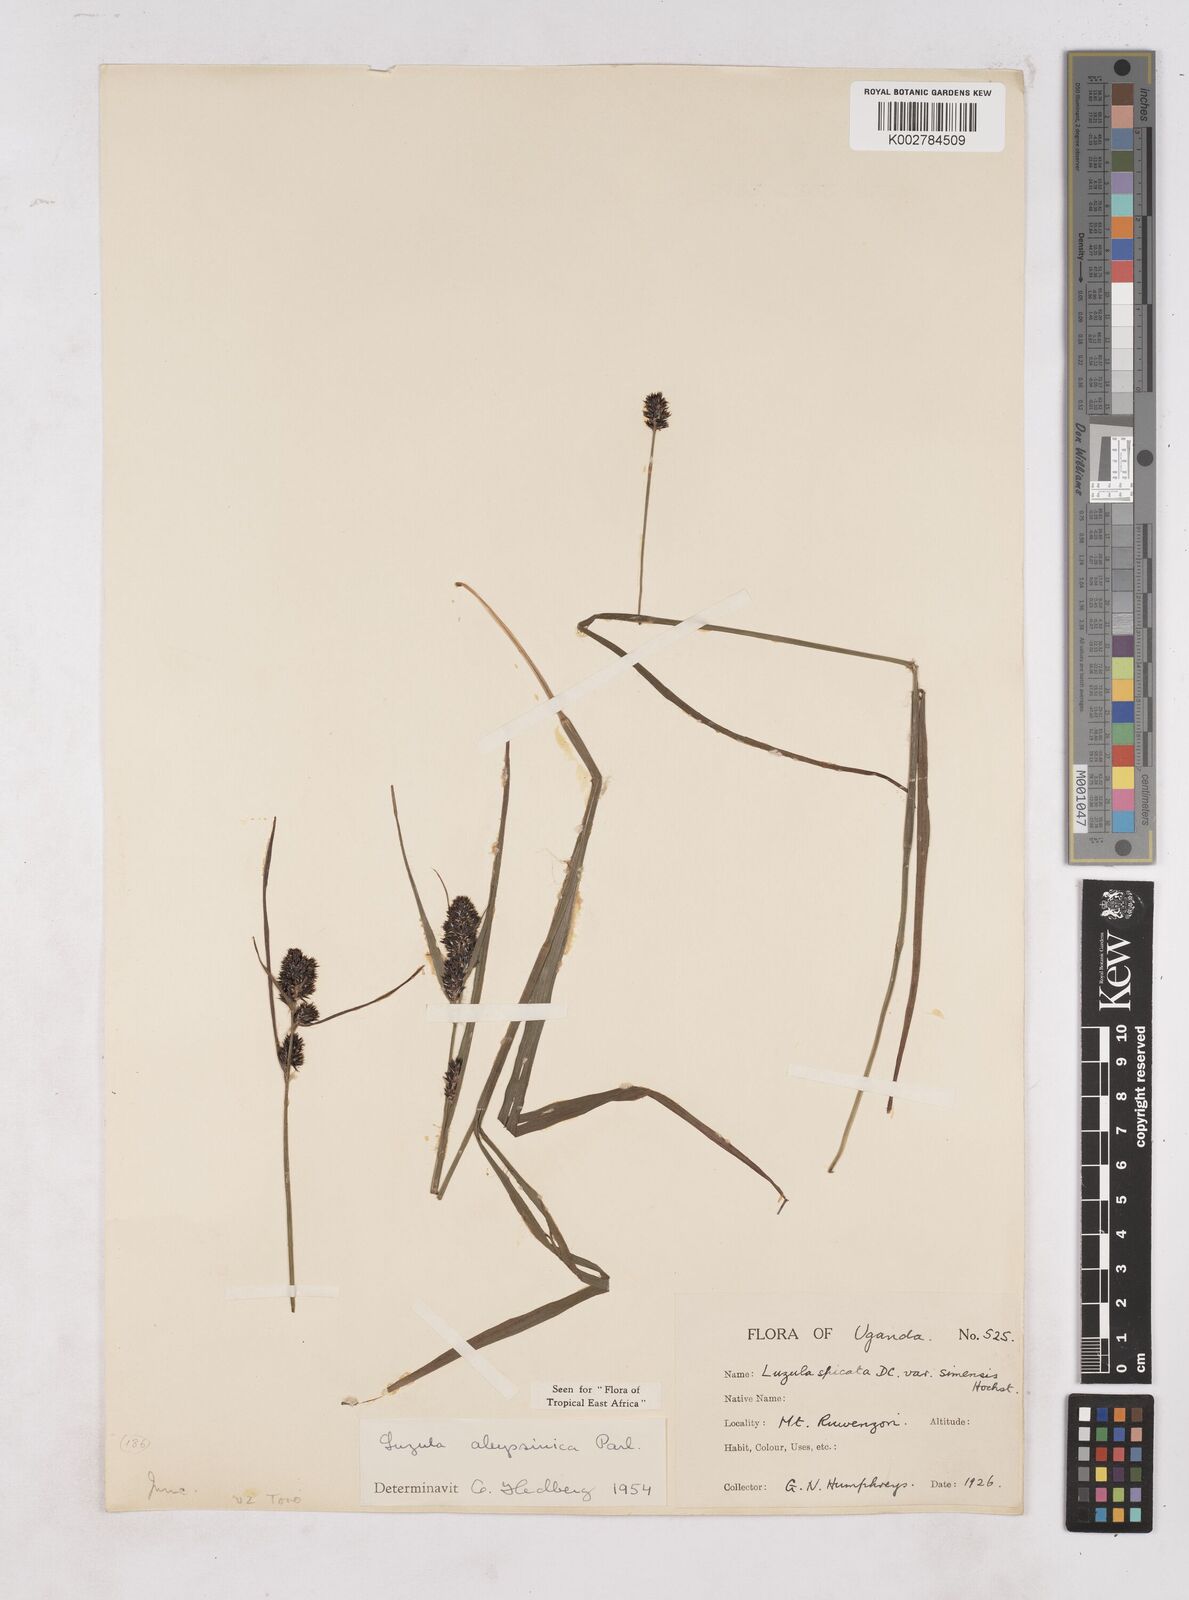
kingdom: Plantae
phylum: Tracheophyta
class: Liliopsida
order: Poales
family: Juncaceae
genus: Luzula
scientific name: Luzula abyssinica
